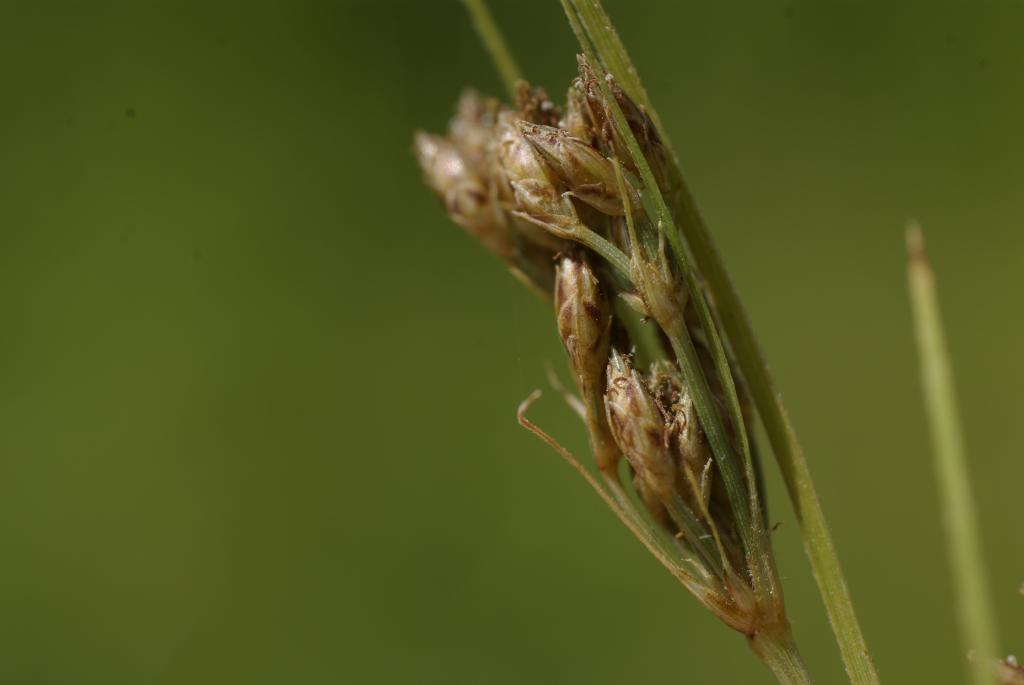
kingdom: Plantae
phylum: Tracheophyta
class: Liliopsida
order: Poales
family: Cyperaceae
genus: Fimbristylis
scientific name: Fimbristylis dichotoma
